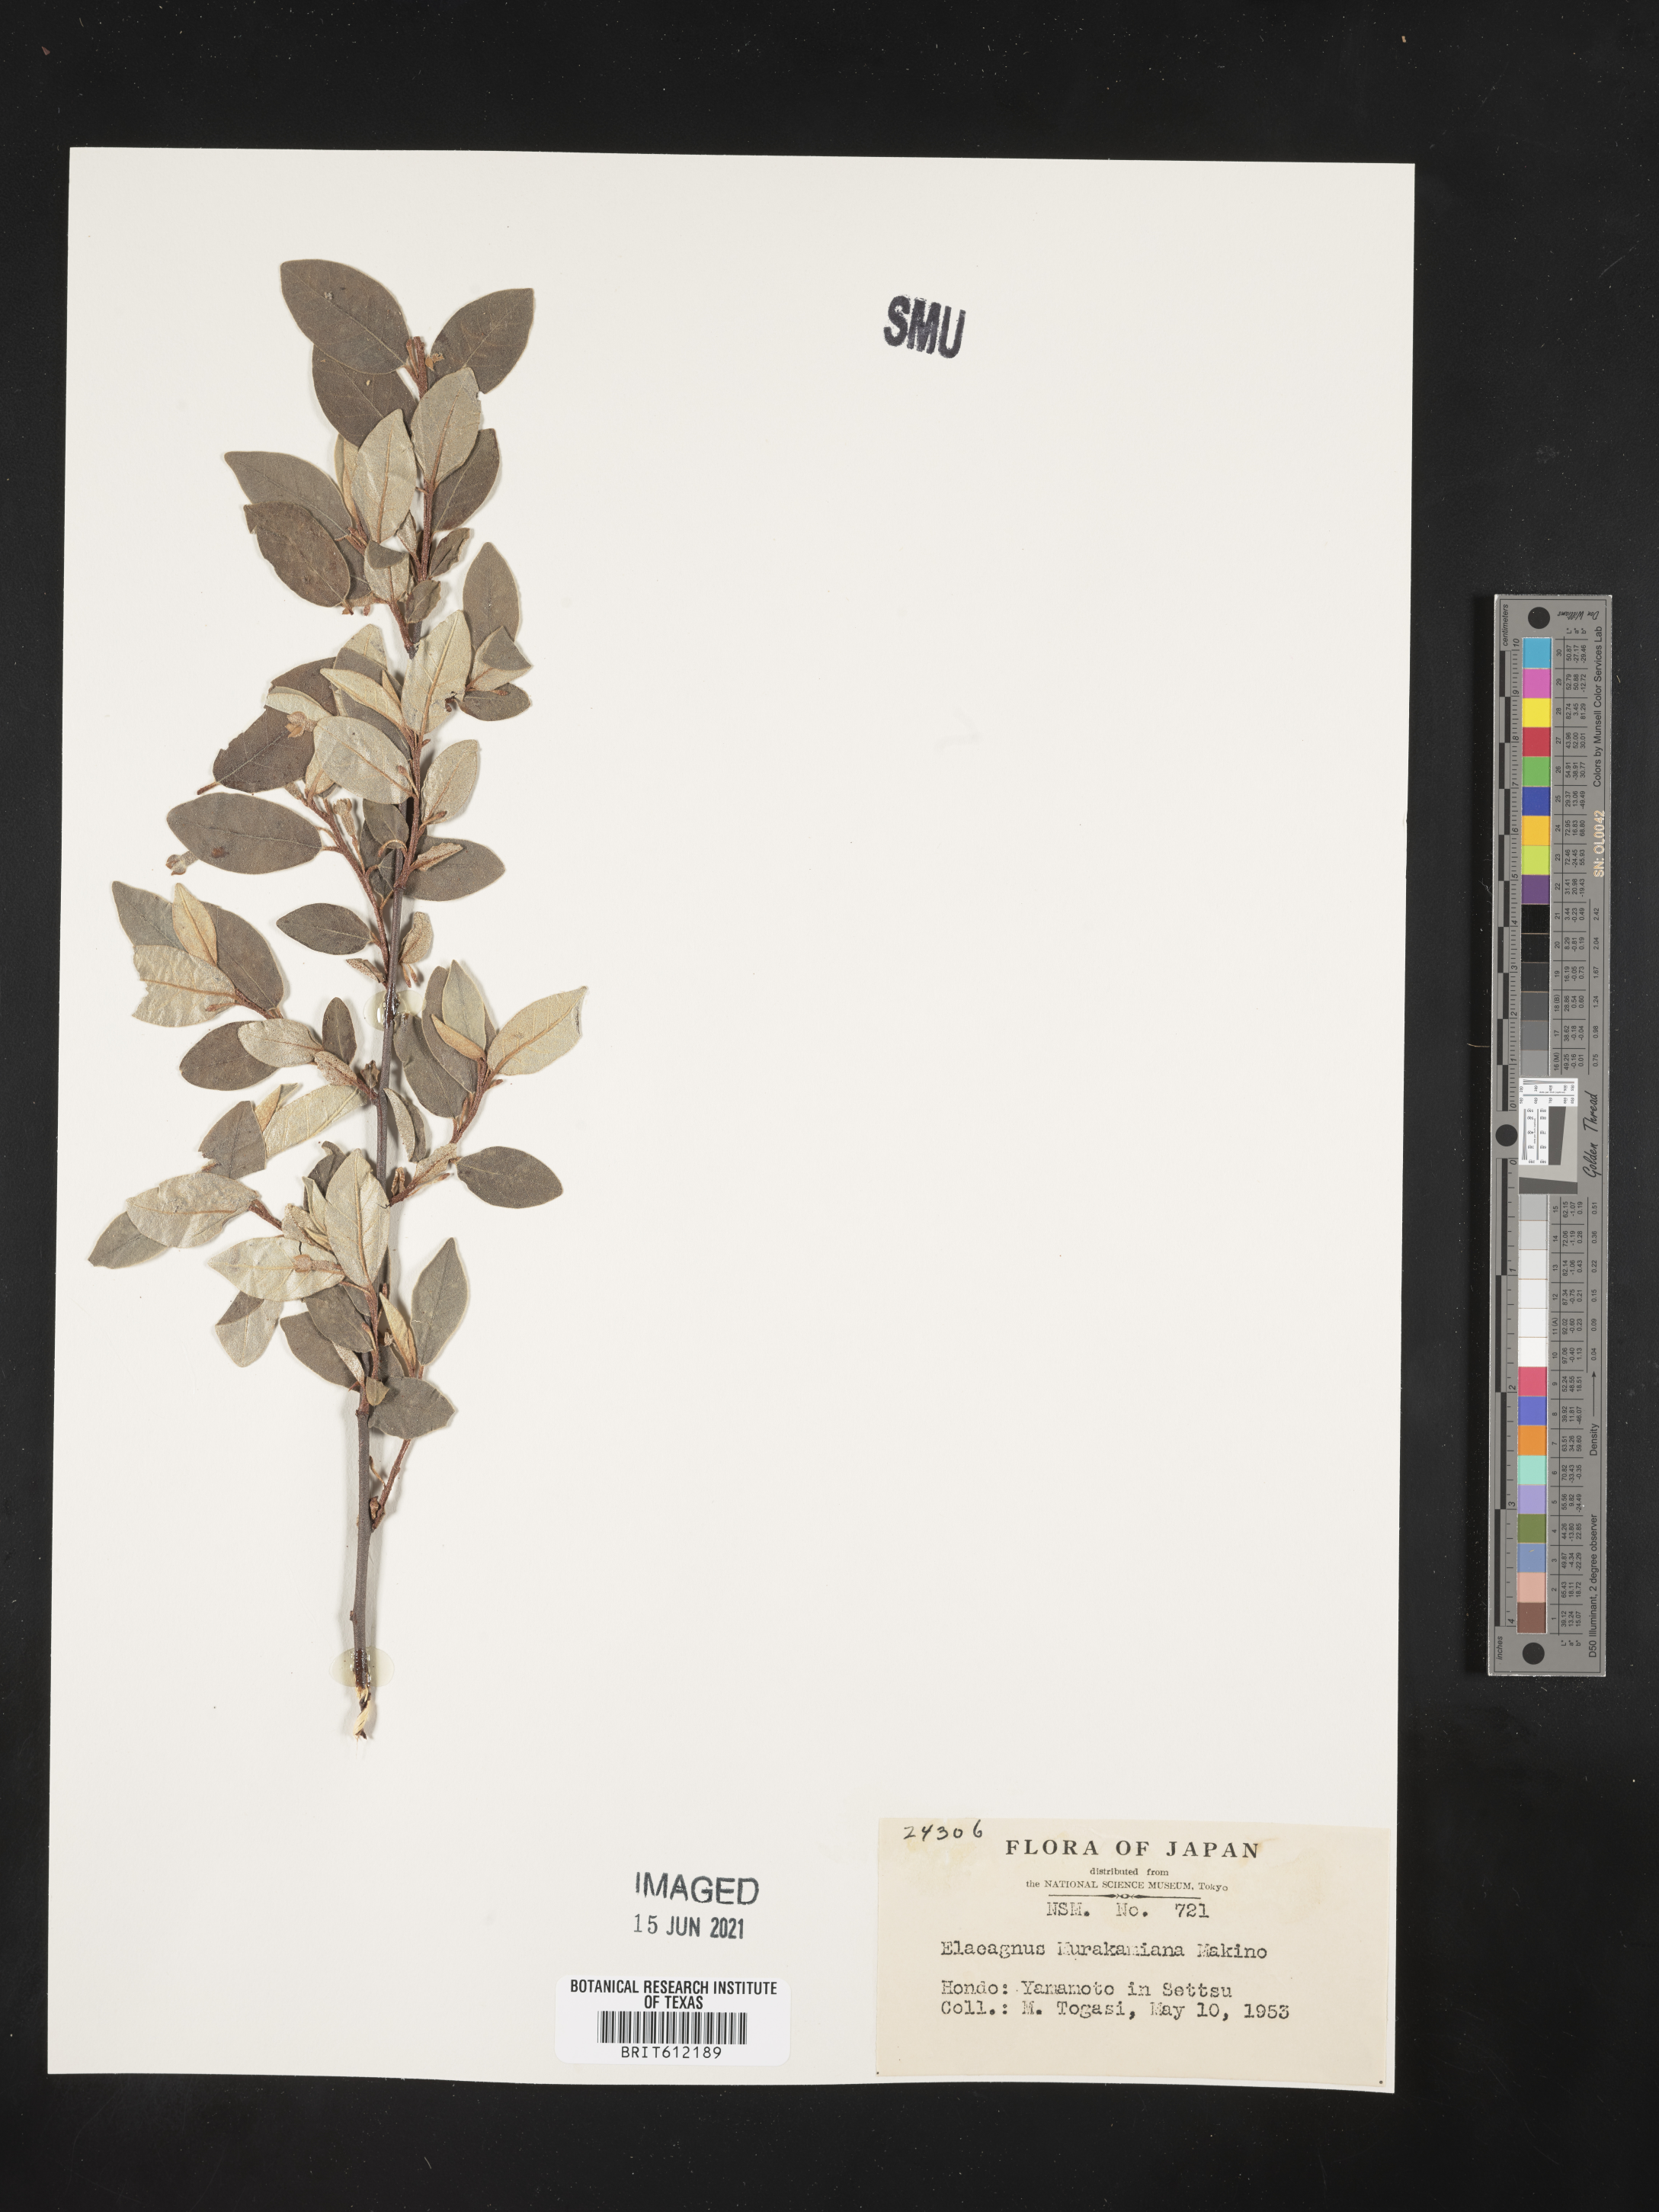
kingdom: Plantae
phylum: Tracheophyta
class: Magnoliopsida
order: Rosales
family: Elaeagnaceae
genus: Elaeagnus
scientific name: Elaeagnus murakamiana
